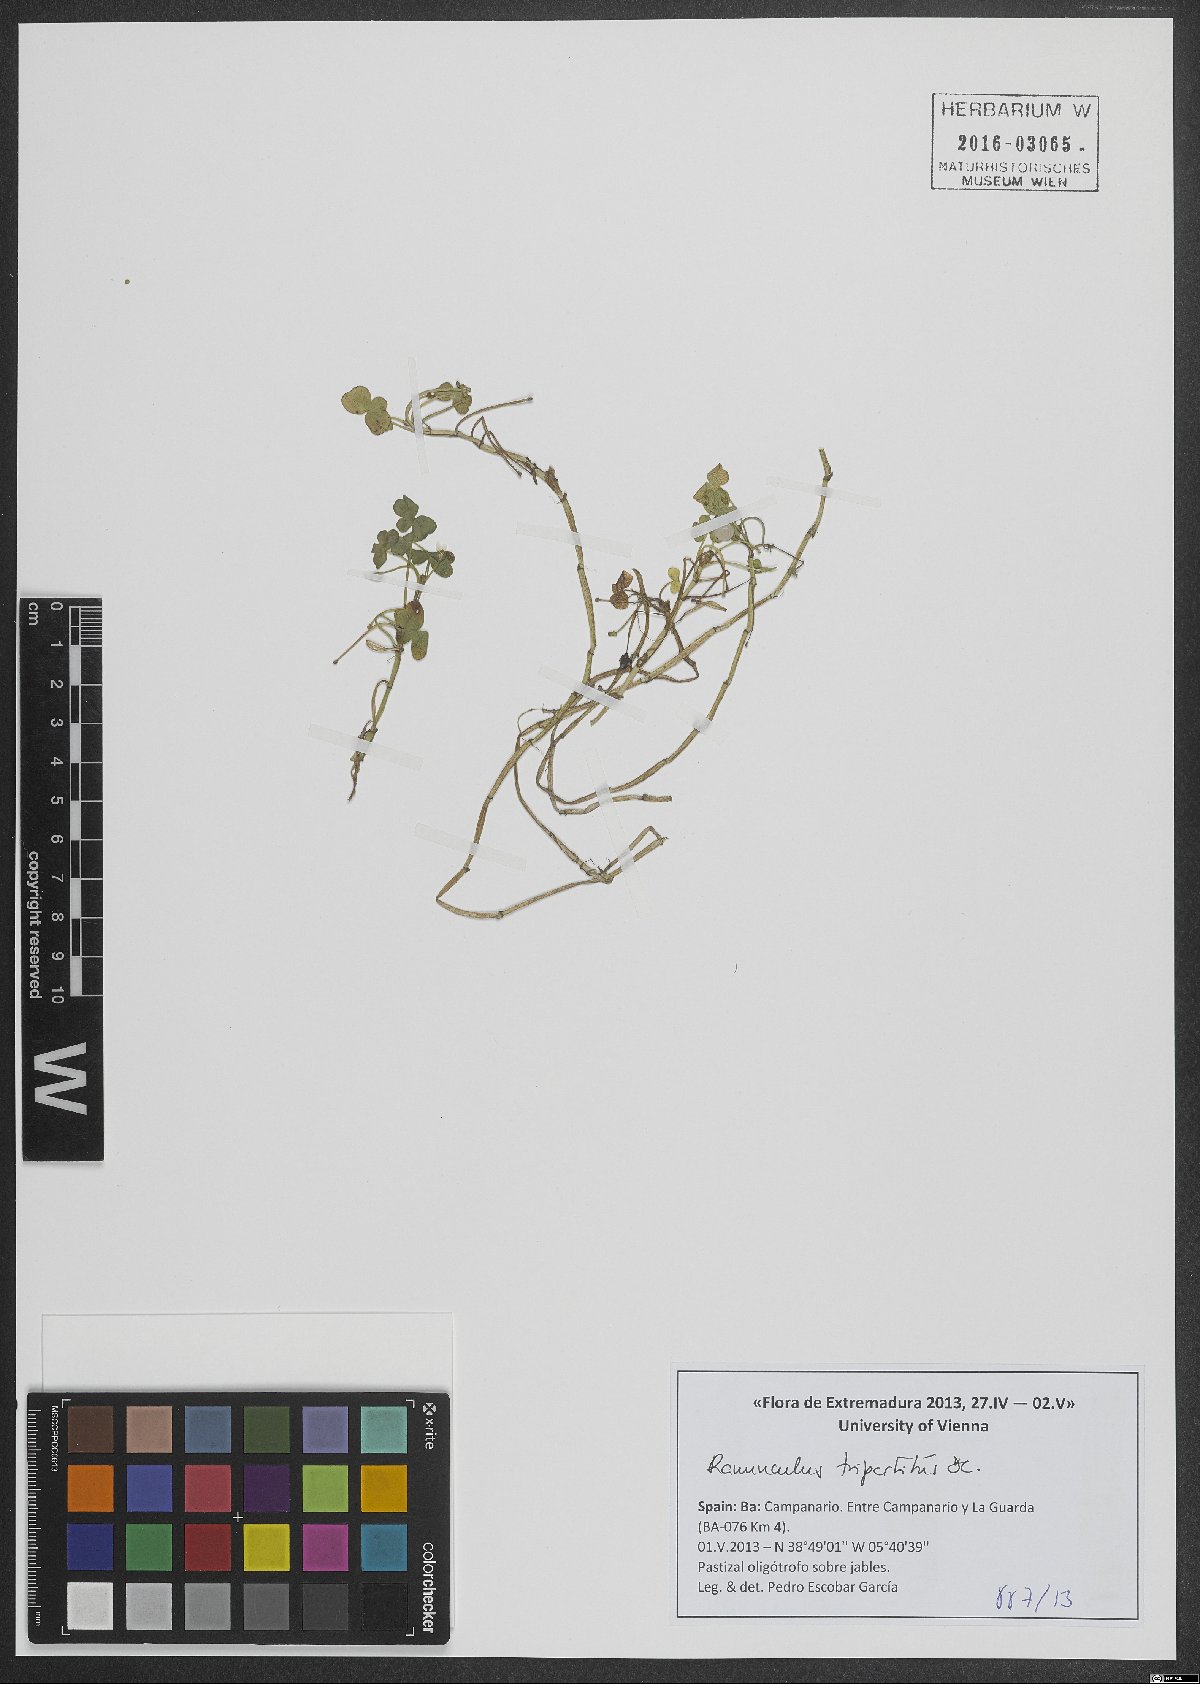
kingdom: Plantae
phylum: Tracheophyta
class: Magnoliopsida
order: Ranunculales
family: Ranunculaceae
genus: Ranunculus
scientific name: Ranunculus tripartitus
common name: Three-lobed crowfoot
